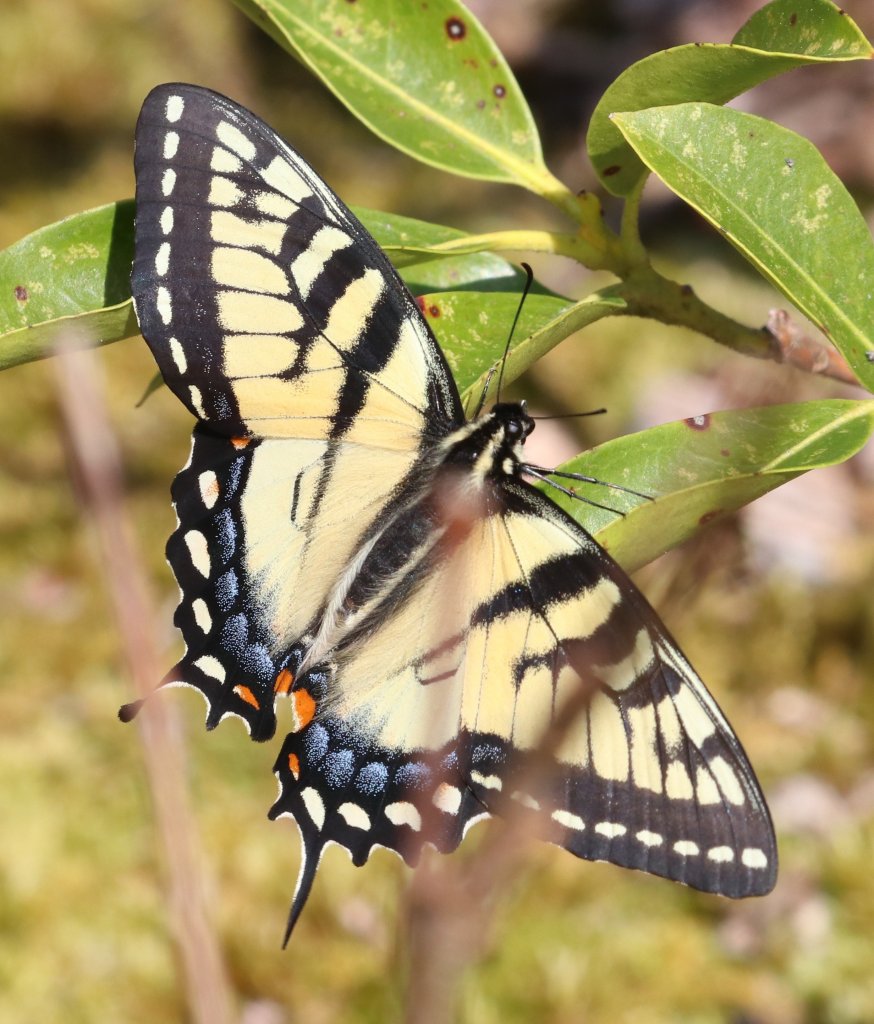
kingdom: Animalia
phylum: Arthropoda
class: Insecta
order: Lepidoptera
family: Papilionidae
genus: Pterourus
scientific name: Pterourus glaucus
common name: Eastern Tiger Swallowtail
